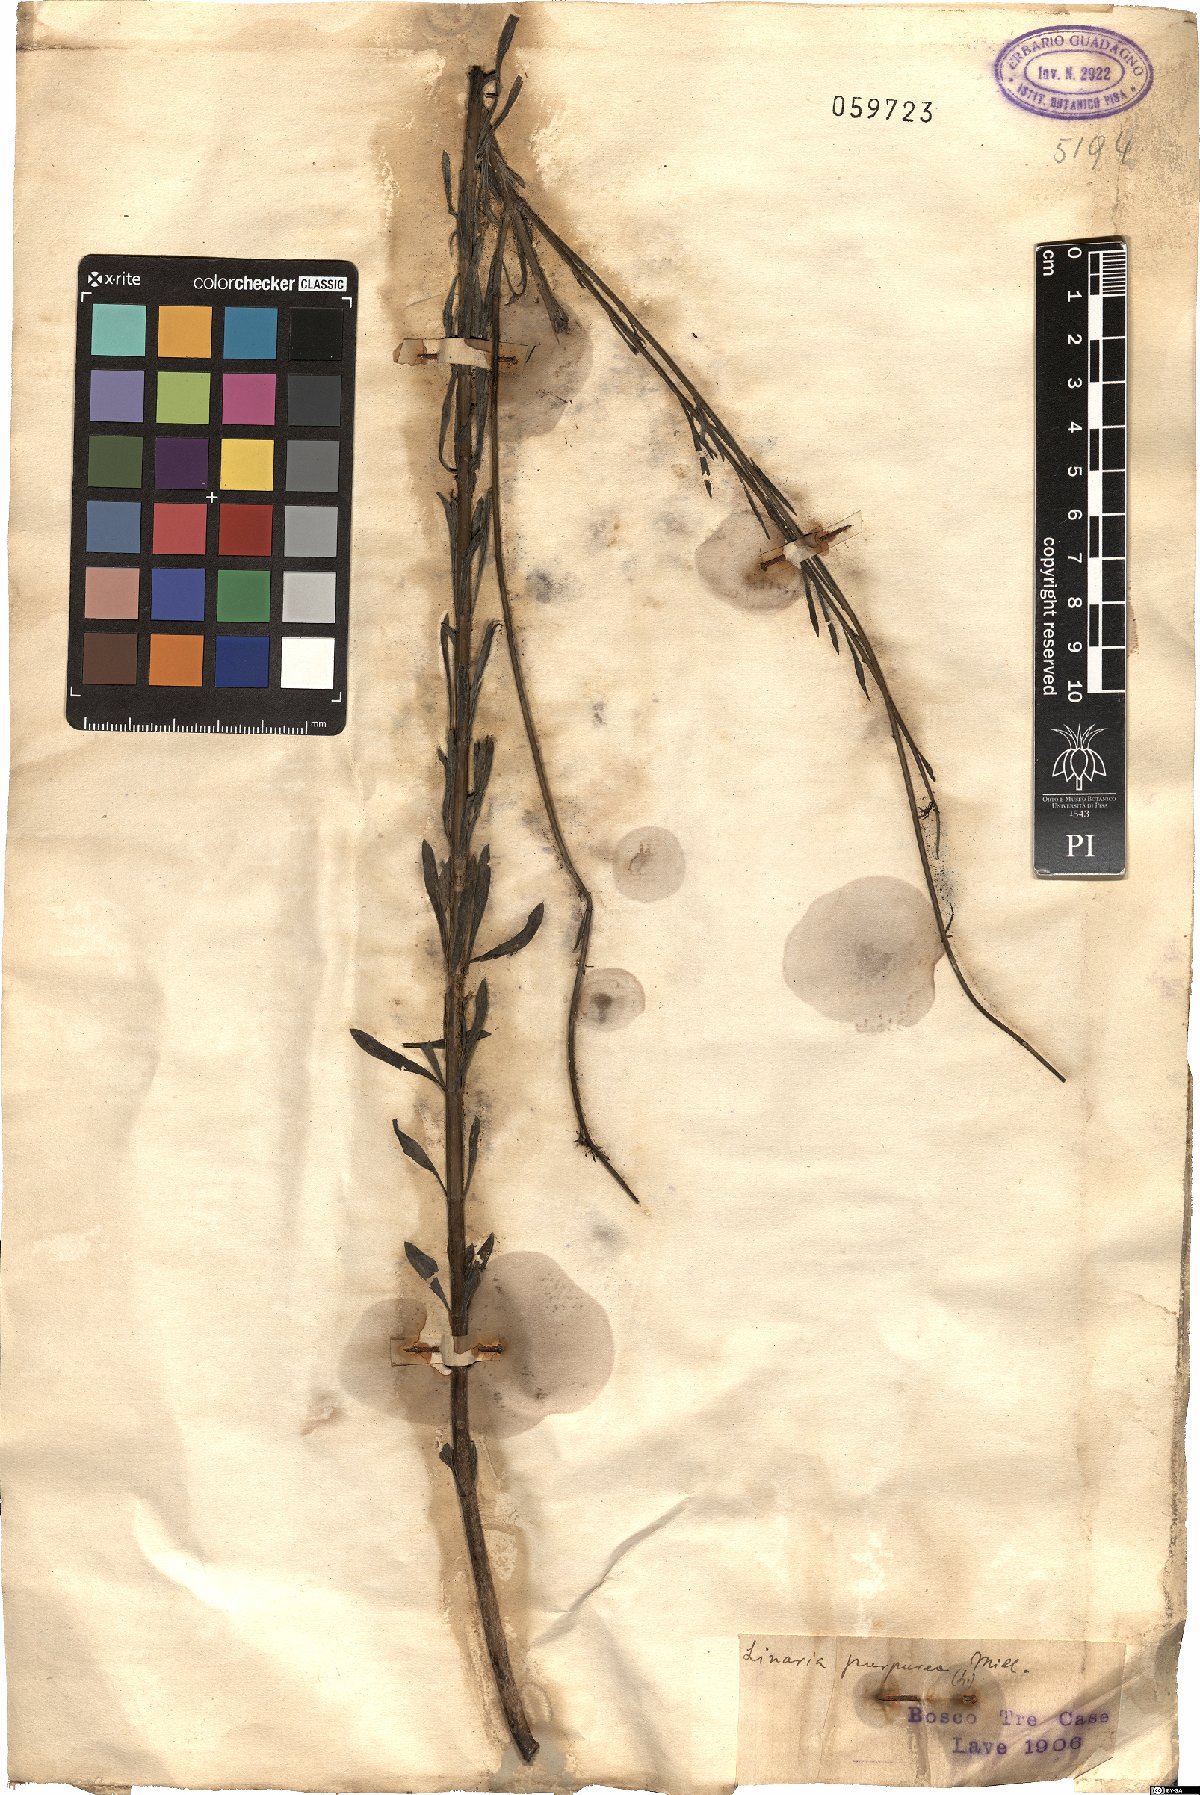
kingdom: Plantae
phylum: Tracheophyta
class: Magnoliopsida
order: Lamiales
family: Plantaginaceae
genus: Linaria
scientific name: Linaria purpurea
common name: Purple toadflax
